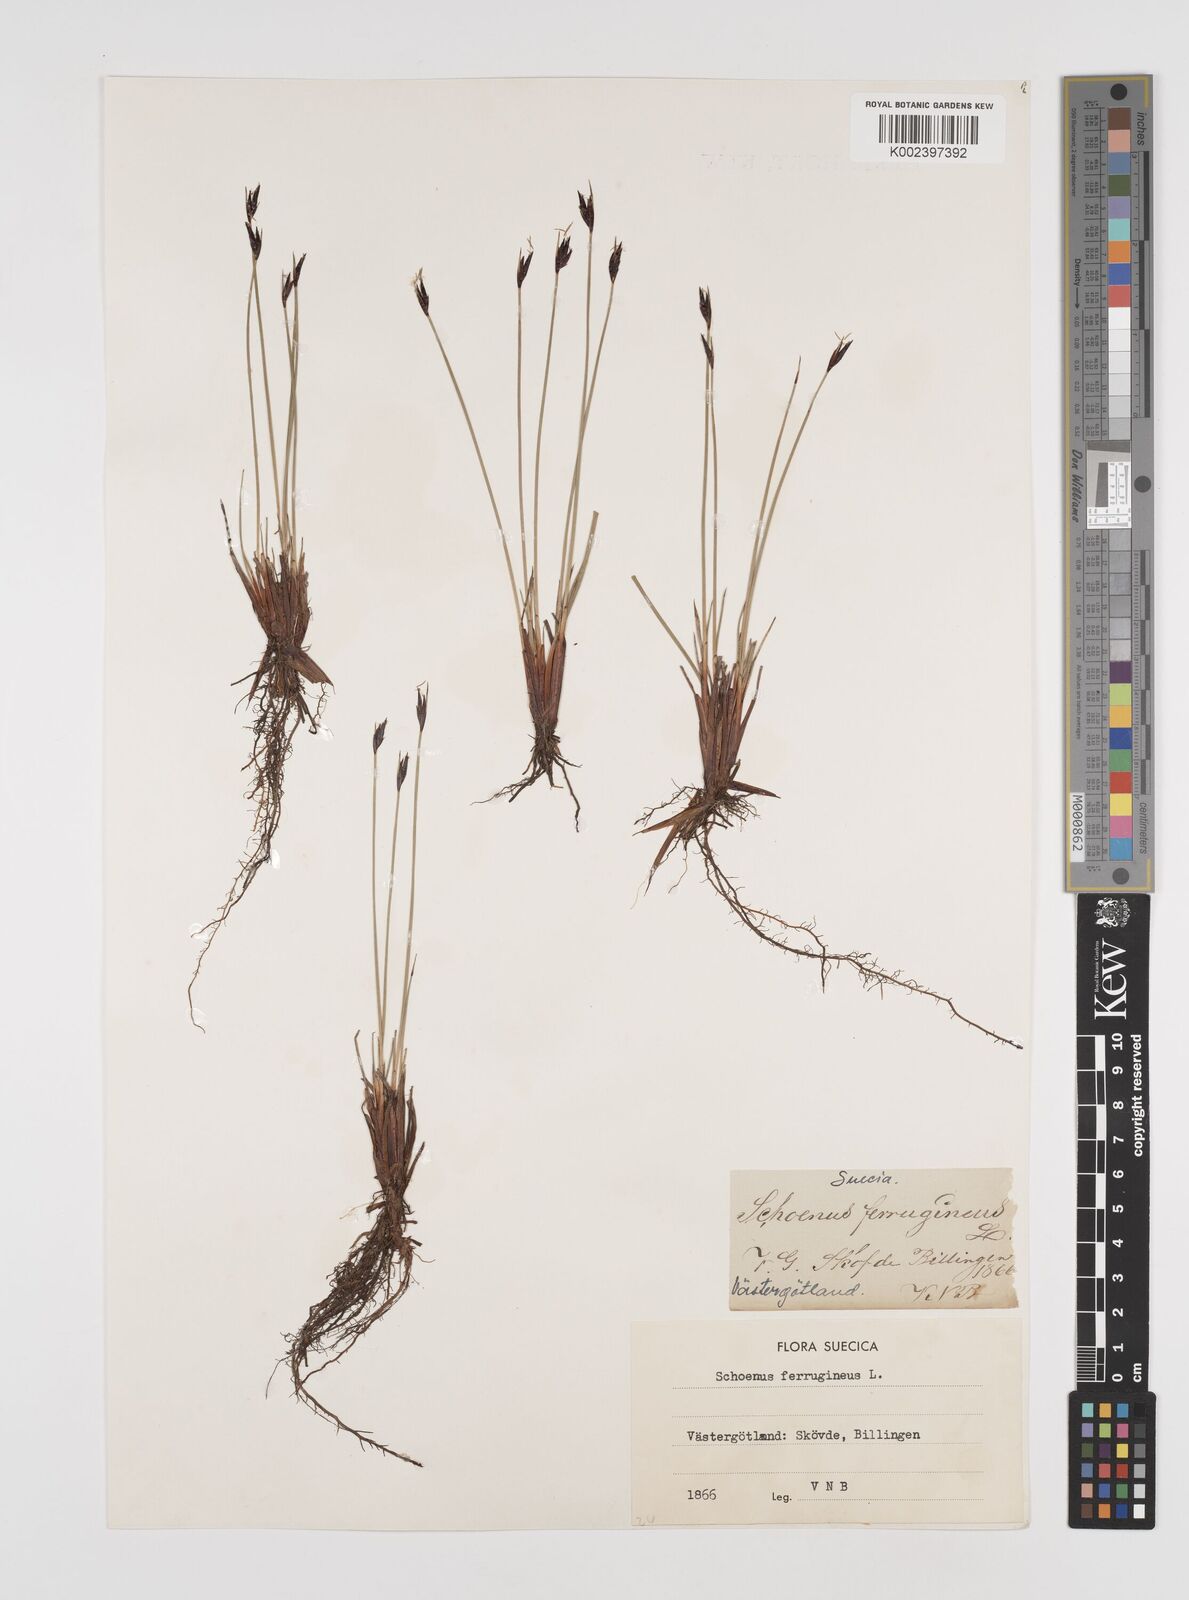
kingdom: Plantae
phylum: Tracheophyta
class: Liliopsida
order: Poales
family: Cyperaceae
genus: Schoenus
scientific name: Schoenus ferrugineus
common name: Brown bog-rush
